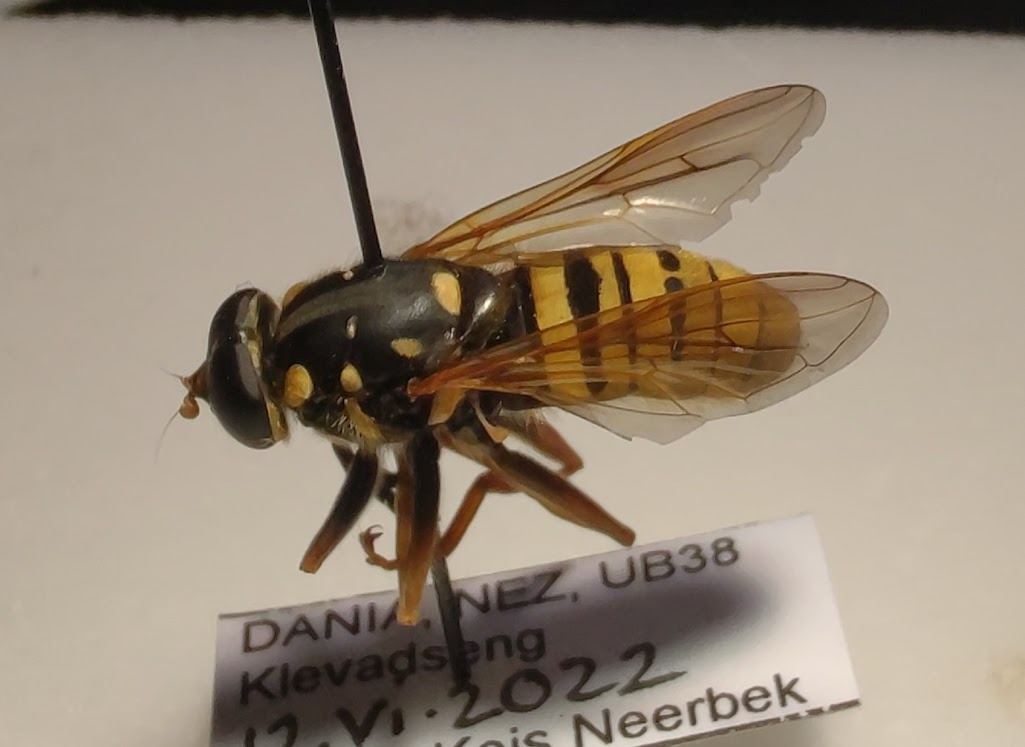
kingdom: Animalia
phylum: Arthropoda
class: Insecta
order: Diptera
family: Syrphidae
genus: Temnostoma
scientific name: Temnostoma meridionale
